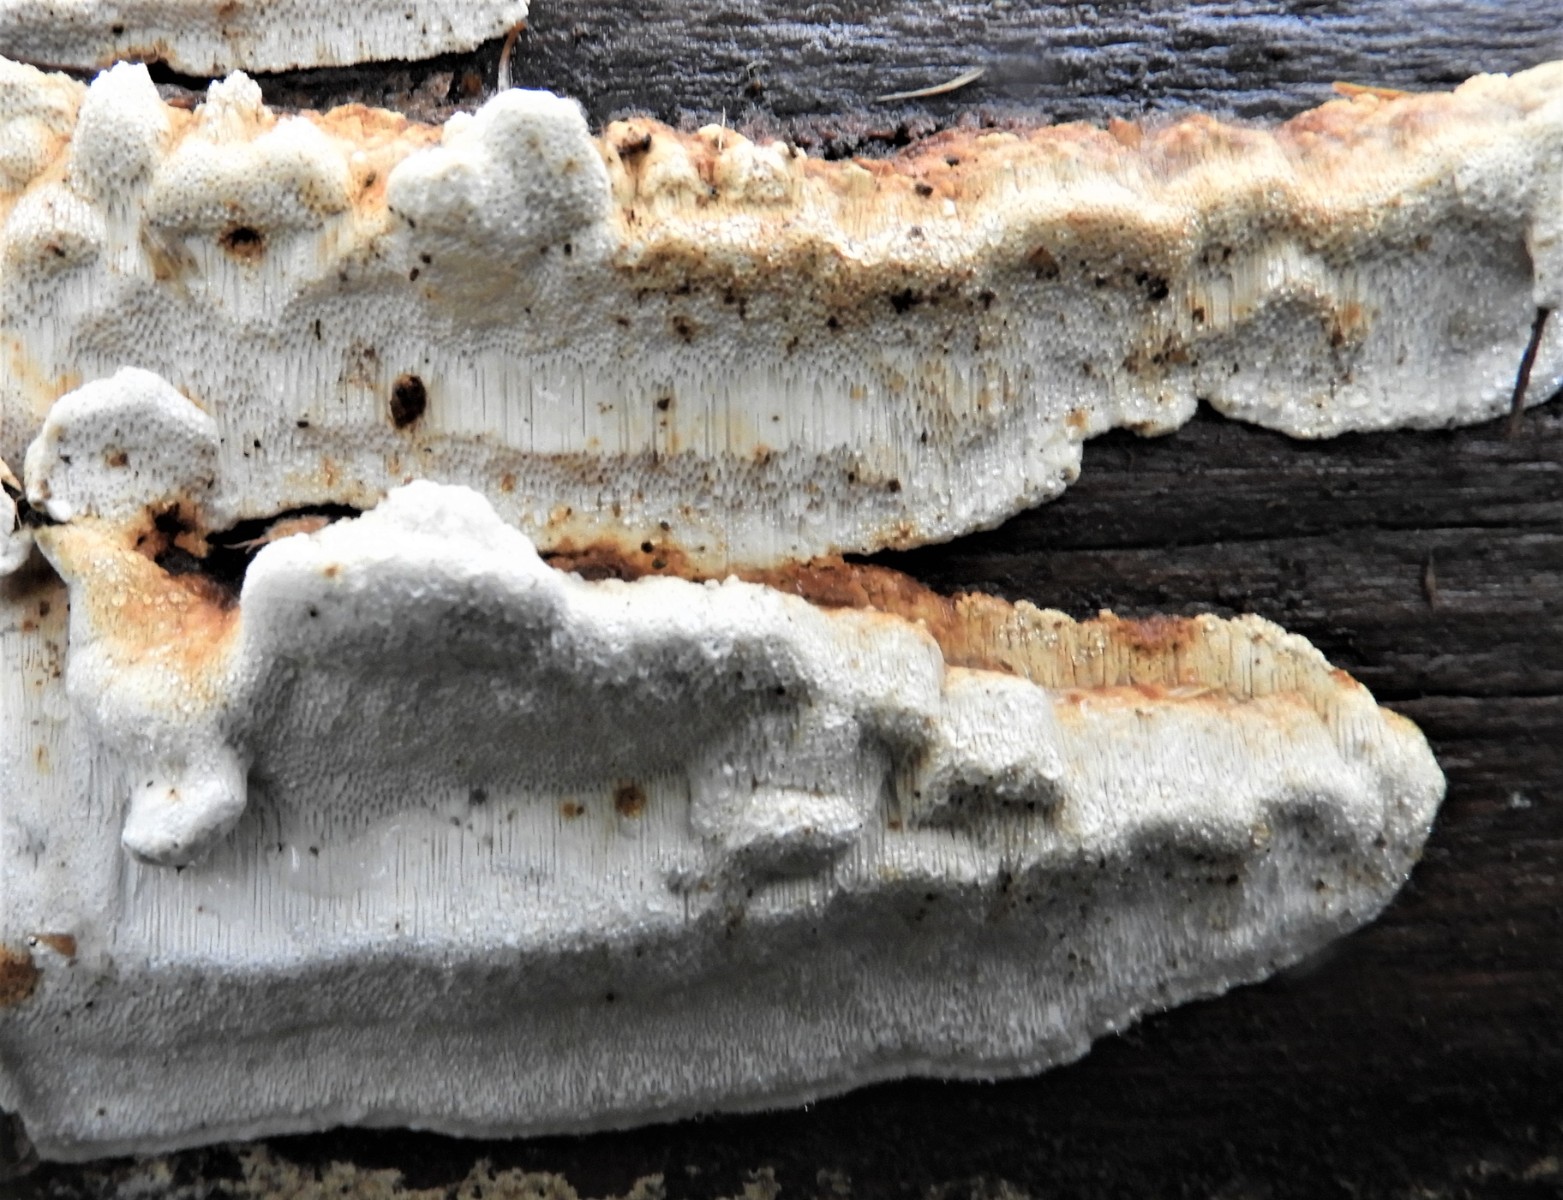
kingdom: Fungi
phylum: Basidiomycota
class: Agaricomycetes
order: Polyporales
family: Fomitopsidaceae
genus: Neoantrodia
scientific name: Neoantrodia serialis
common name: række-sejporesvamp
